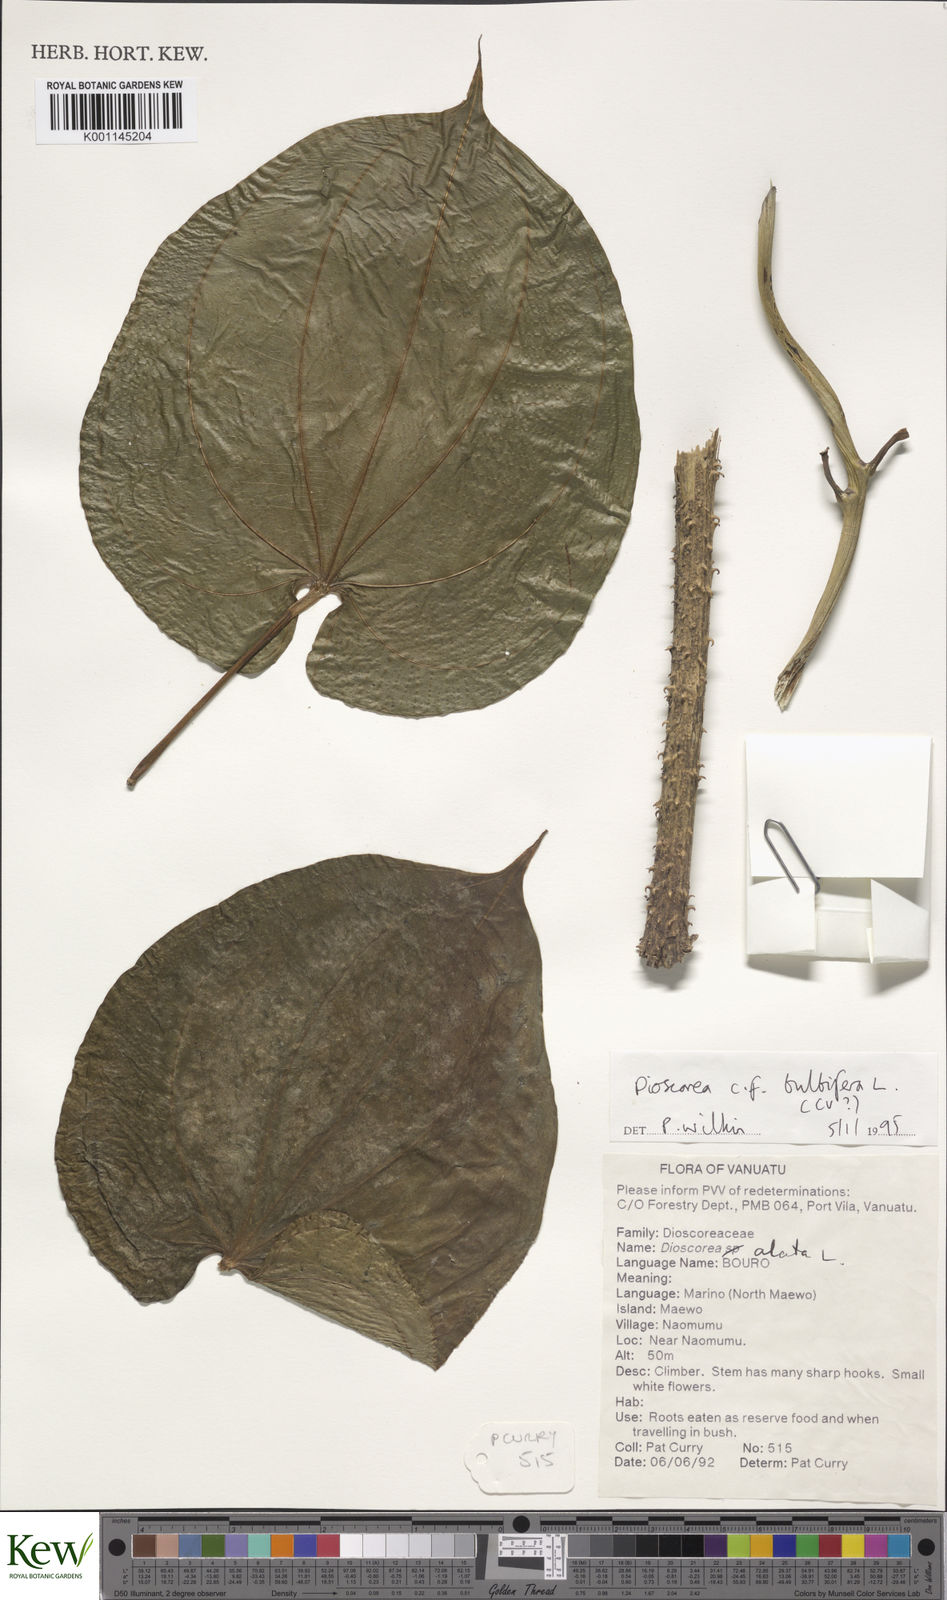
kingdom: Plantae
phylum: Tracheophyta
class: Liliopsida
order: Dioscoreales
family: Dioscoreaceae
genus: Dioscorea
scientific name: Dioscorea bulbifera
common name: Air yam
